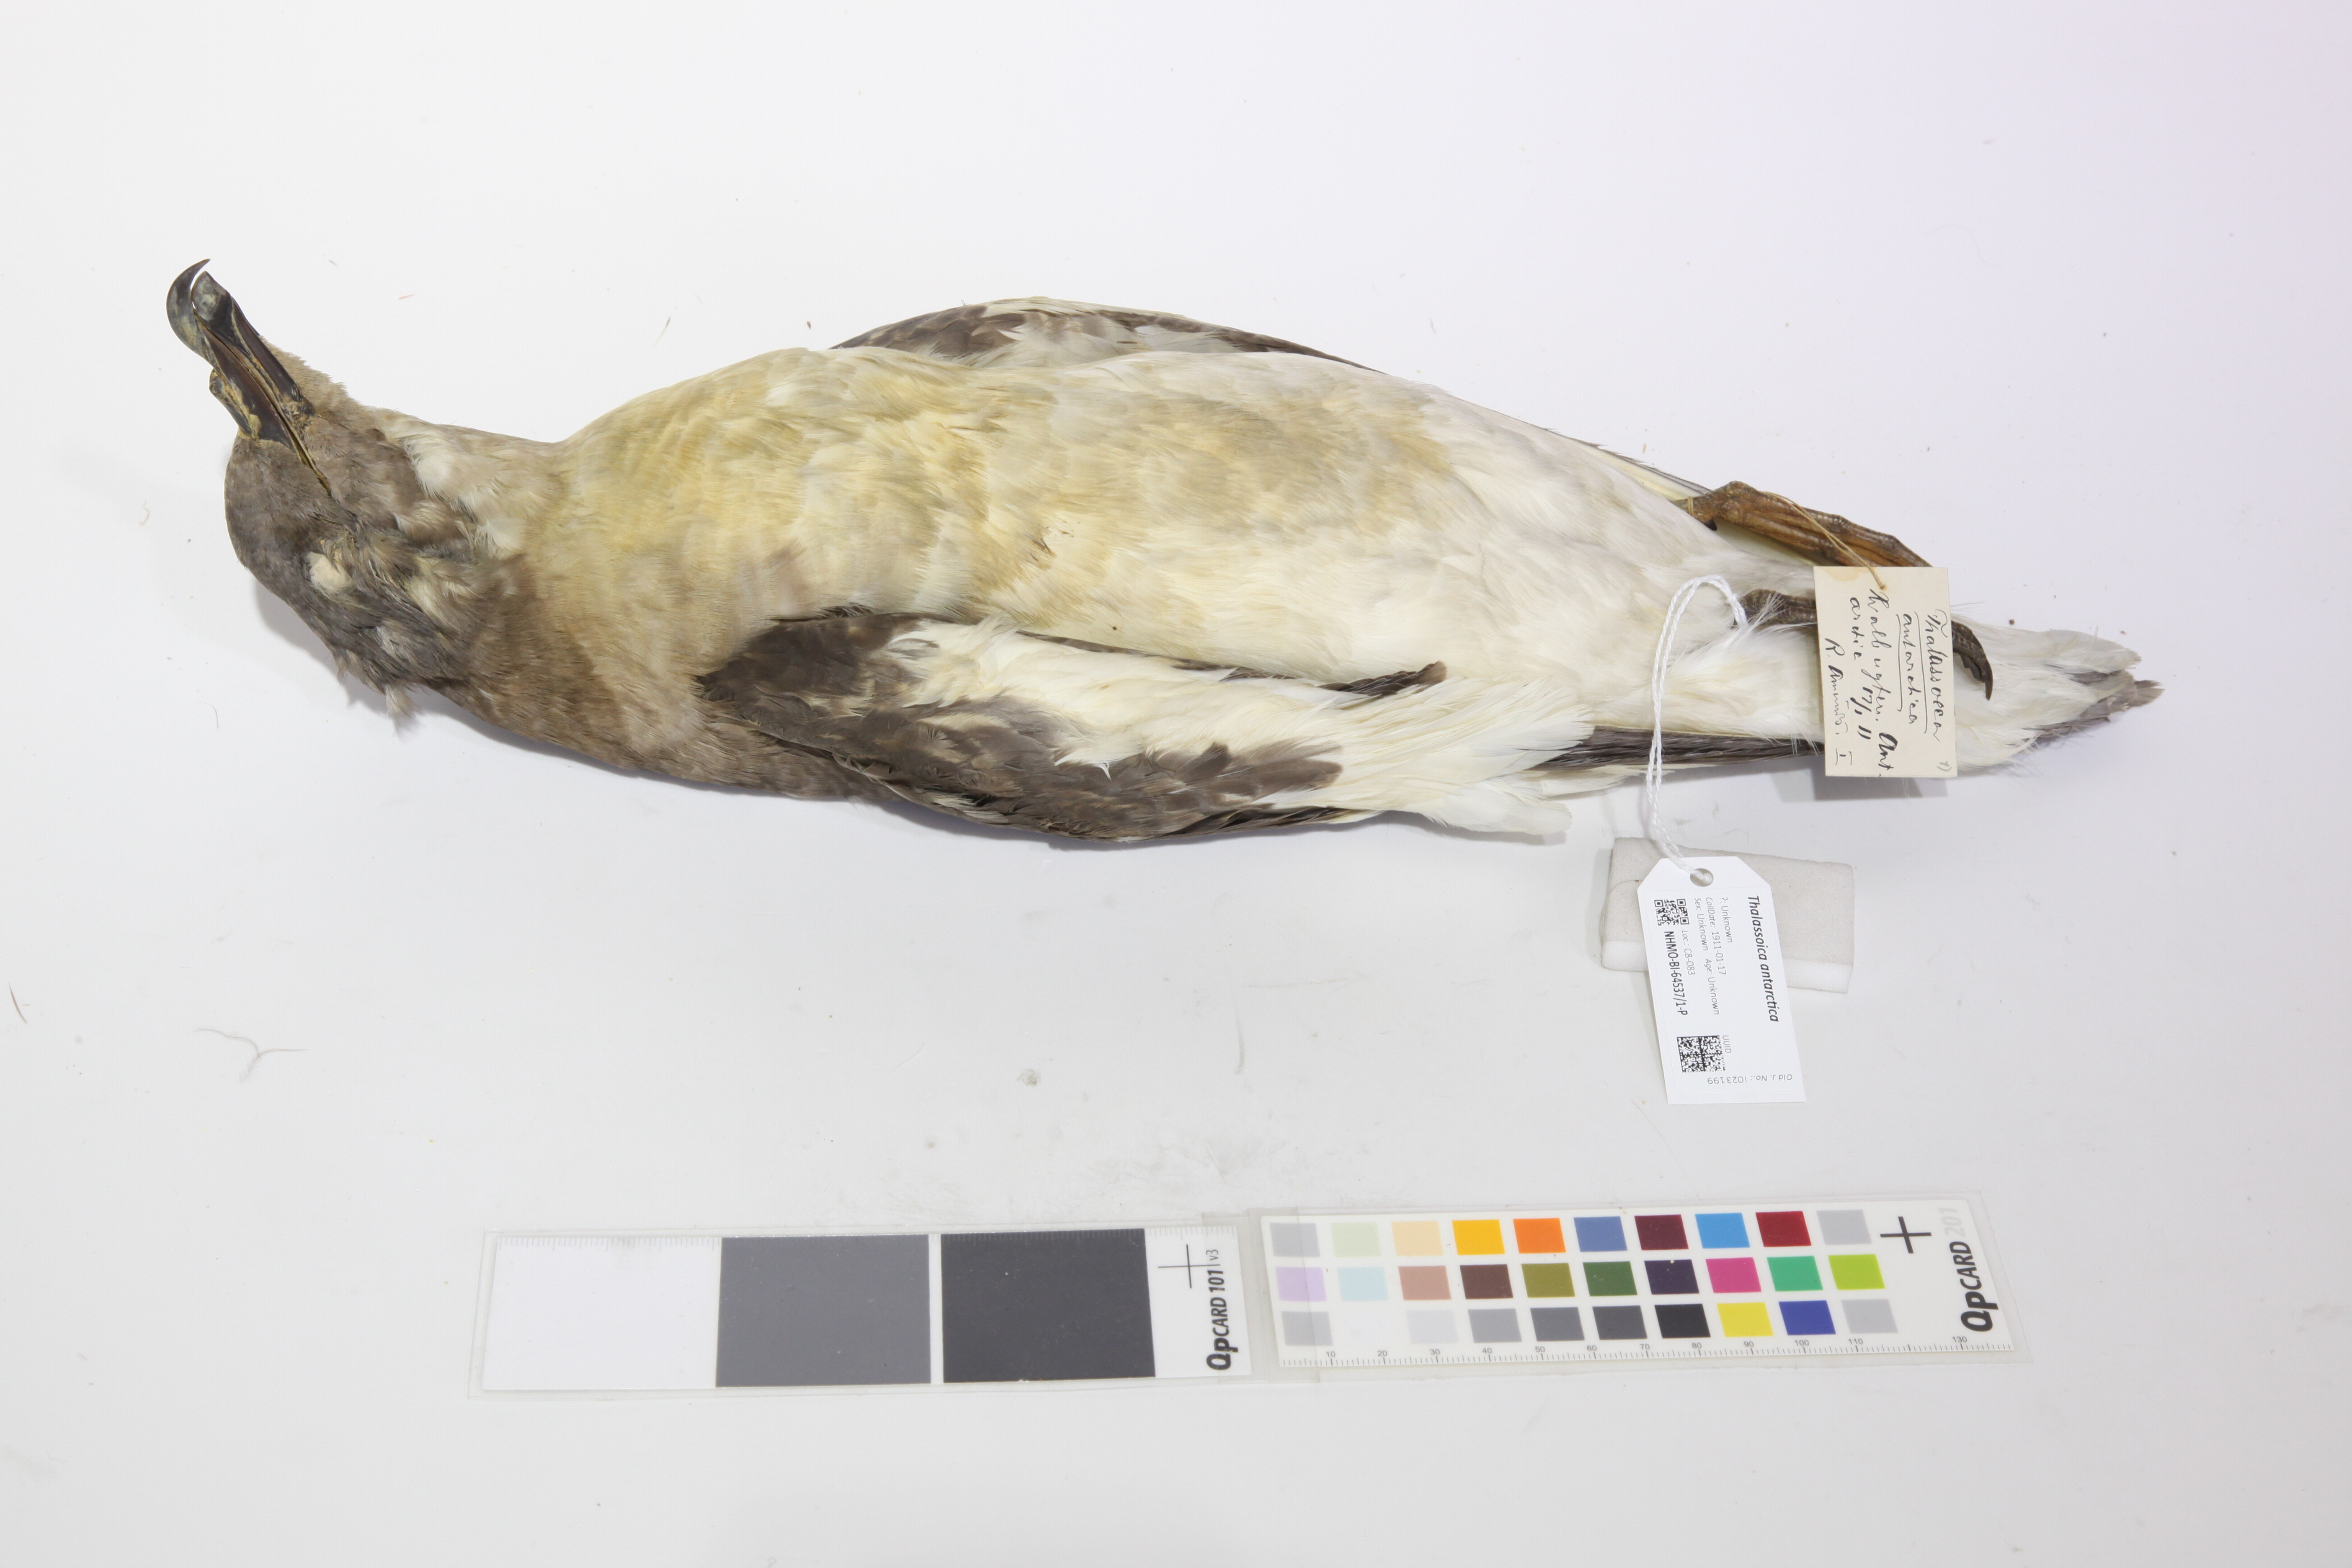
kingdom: Animalia
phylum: Chordata
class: Aves
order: Procellariiformes
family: Procellariidae
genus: Thalassoica
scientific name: Thalassoica antarctica
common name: Antarctic petrel
